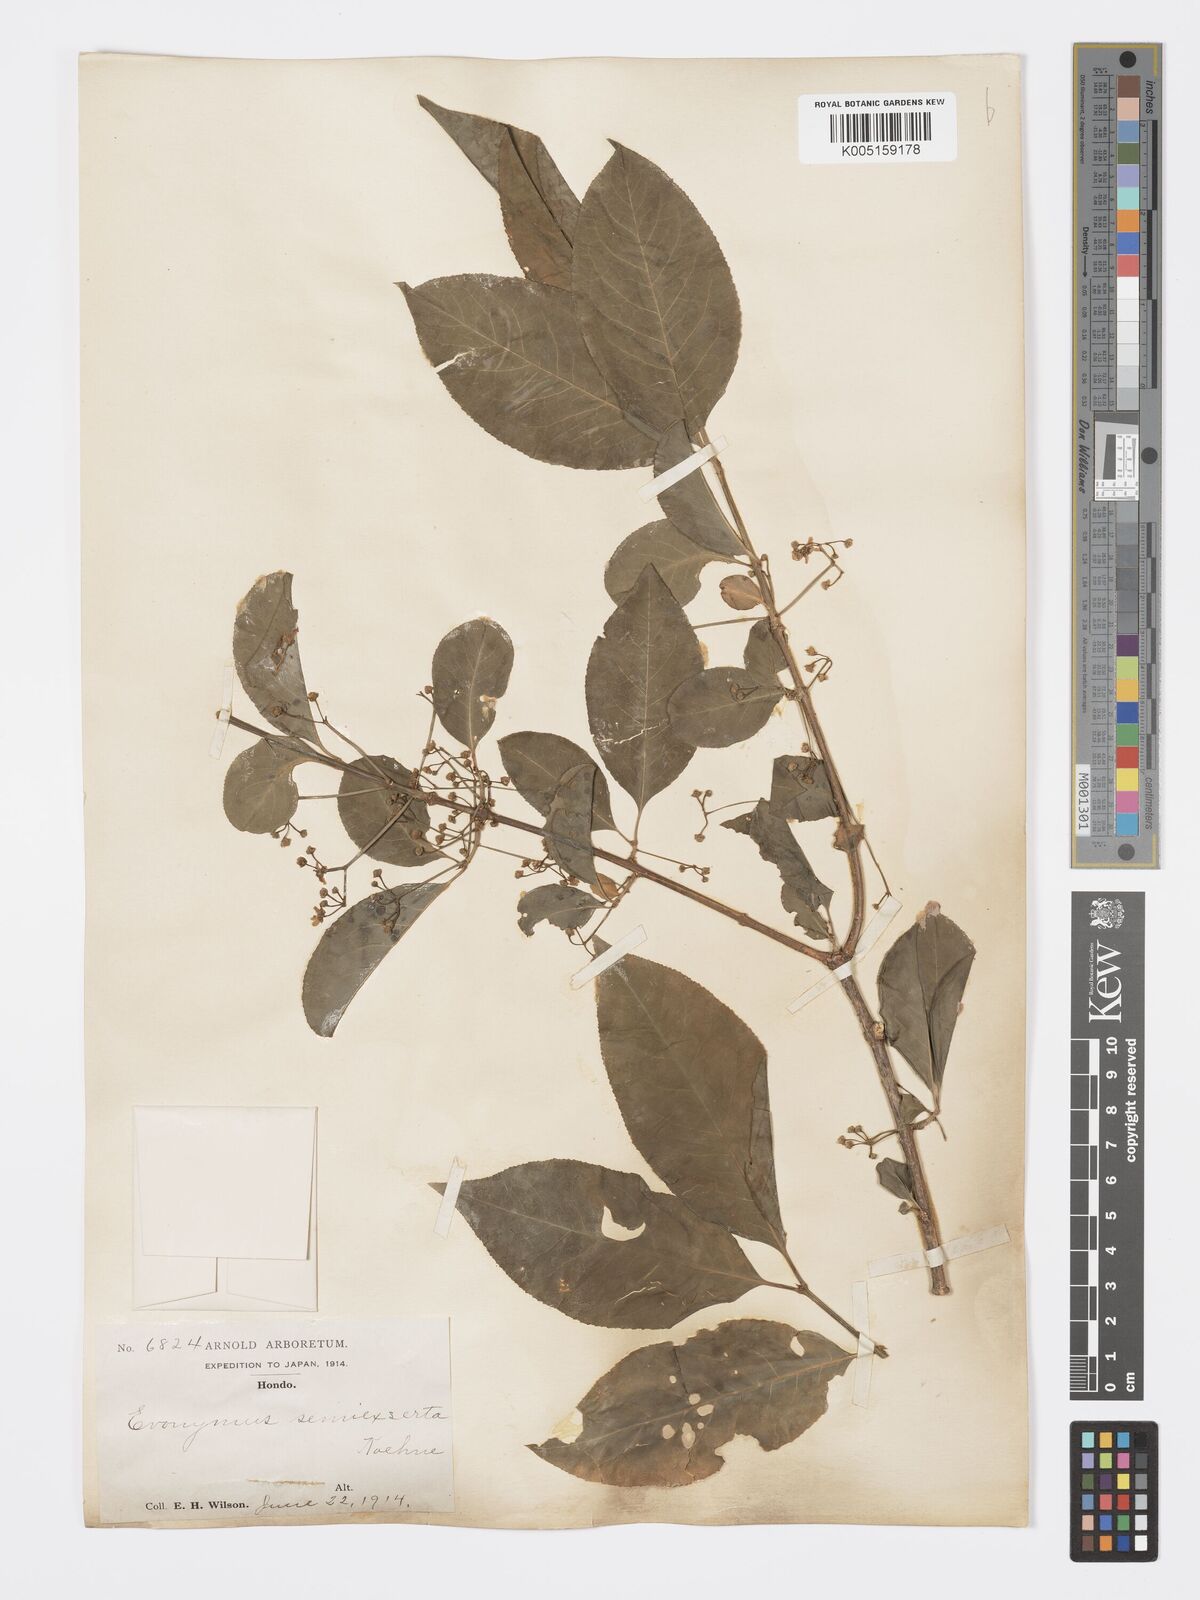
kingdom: Plantae
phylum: Tracheophyta
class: Magnoliopsida
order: Celastrales
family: Celastraceae
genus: Euonymus
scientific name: Euonymus hamiltonianus
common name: Hamilton's spindletree
